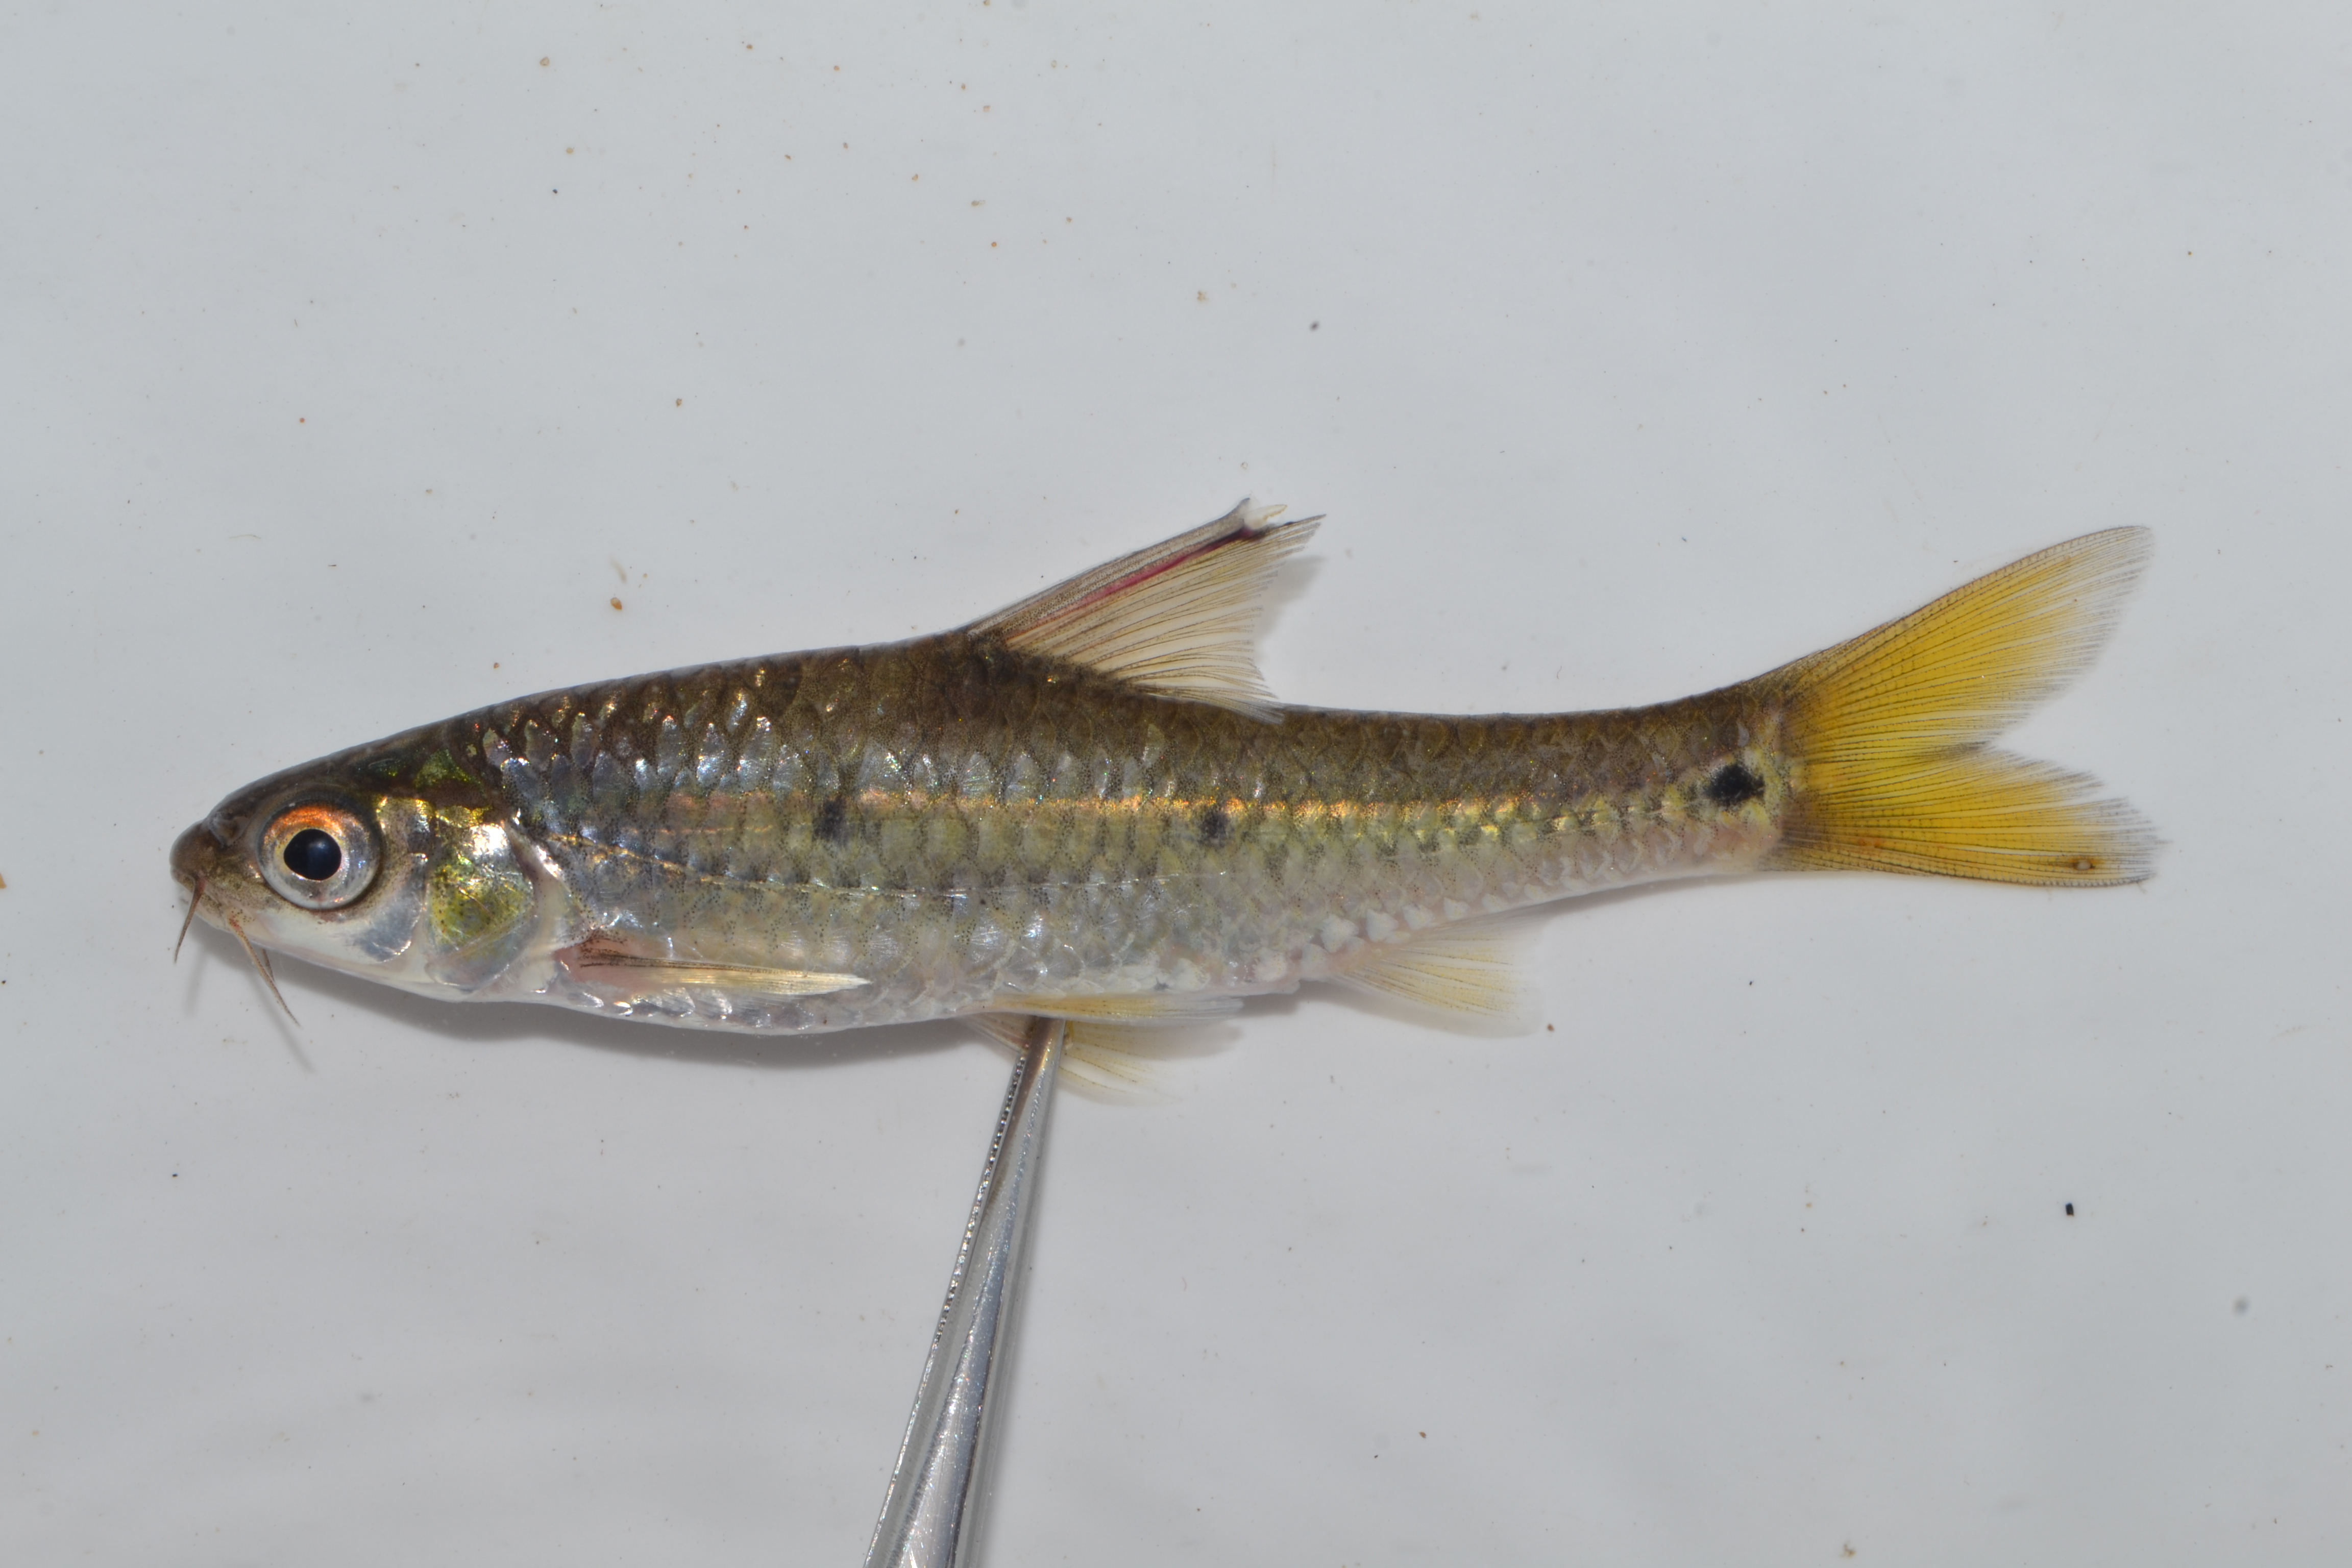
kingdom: Animalia
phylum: Chordata
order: Cypriniformes
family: Cyprinidae
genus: Enteromius
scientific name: Enteromius trimaculatus
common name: Threespot barb
